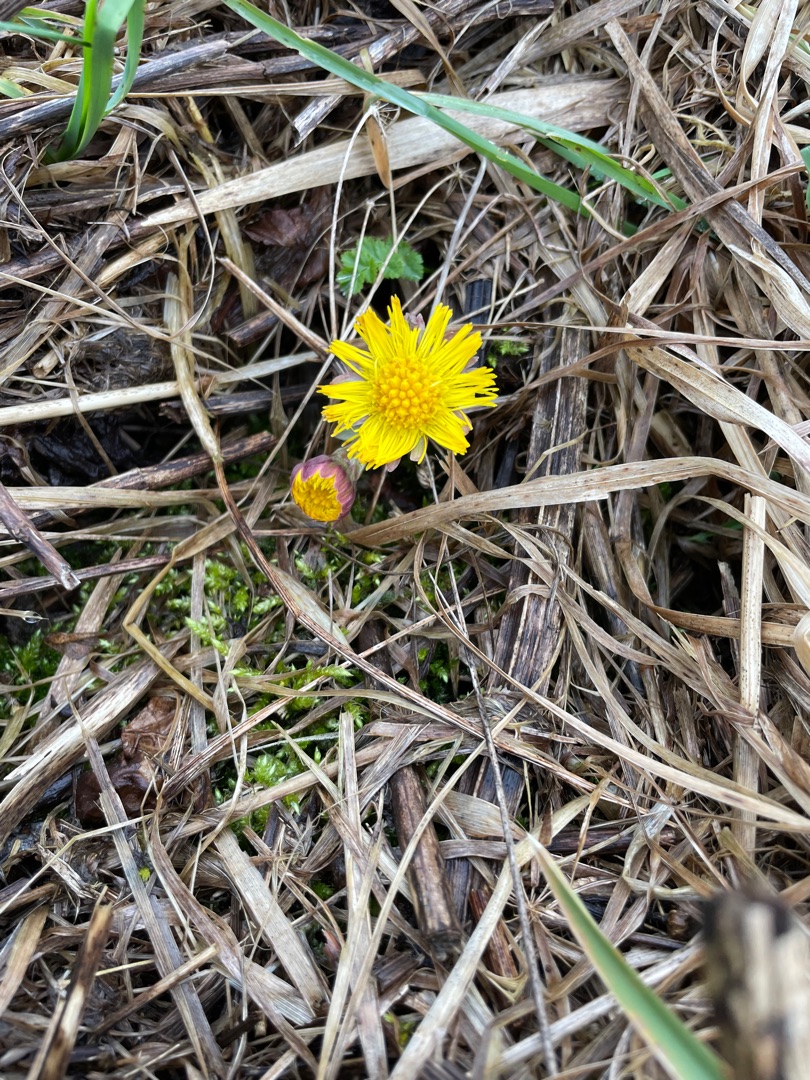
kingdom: Plantae
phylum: Tracheophyta
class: Magnoliopsida
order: Asterales
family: Asteraceae
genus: Tussilago
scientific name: Tussilago farfara
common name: Følfod
